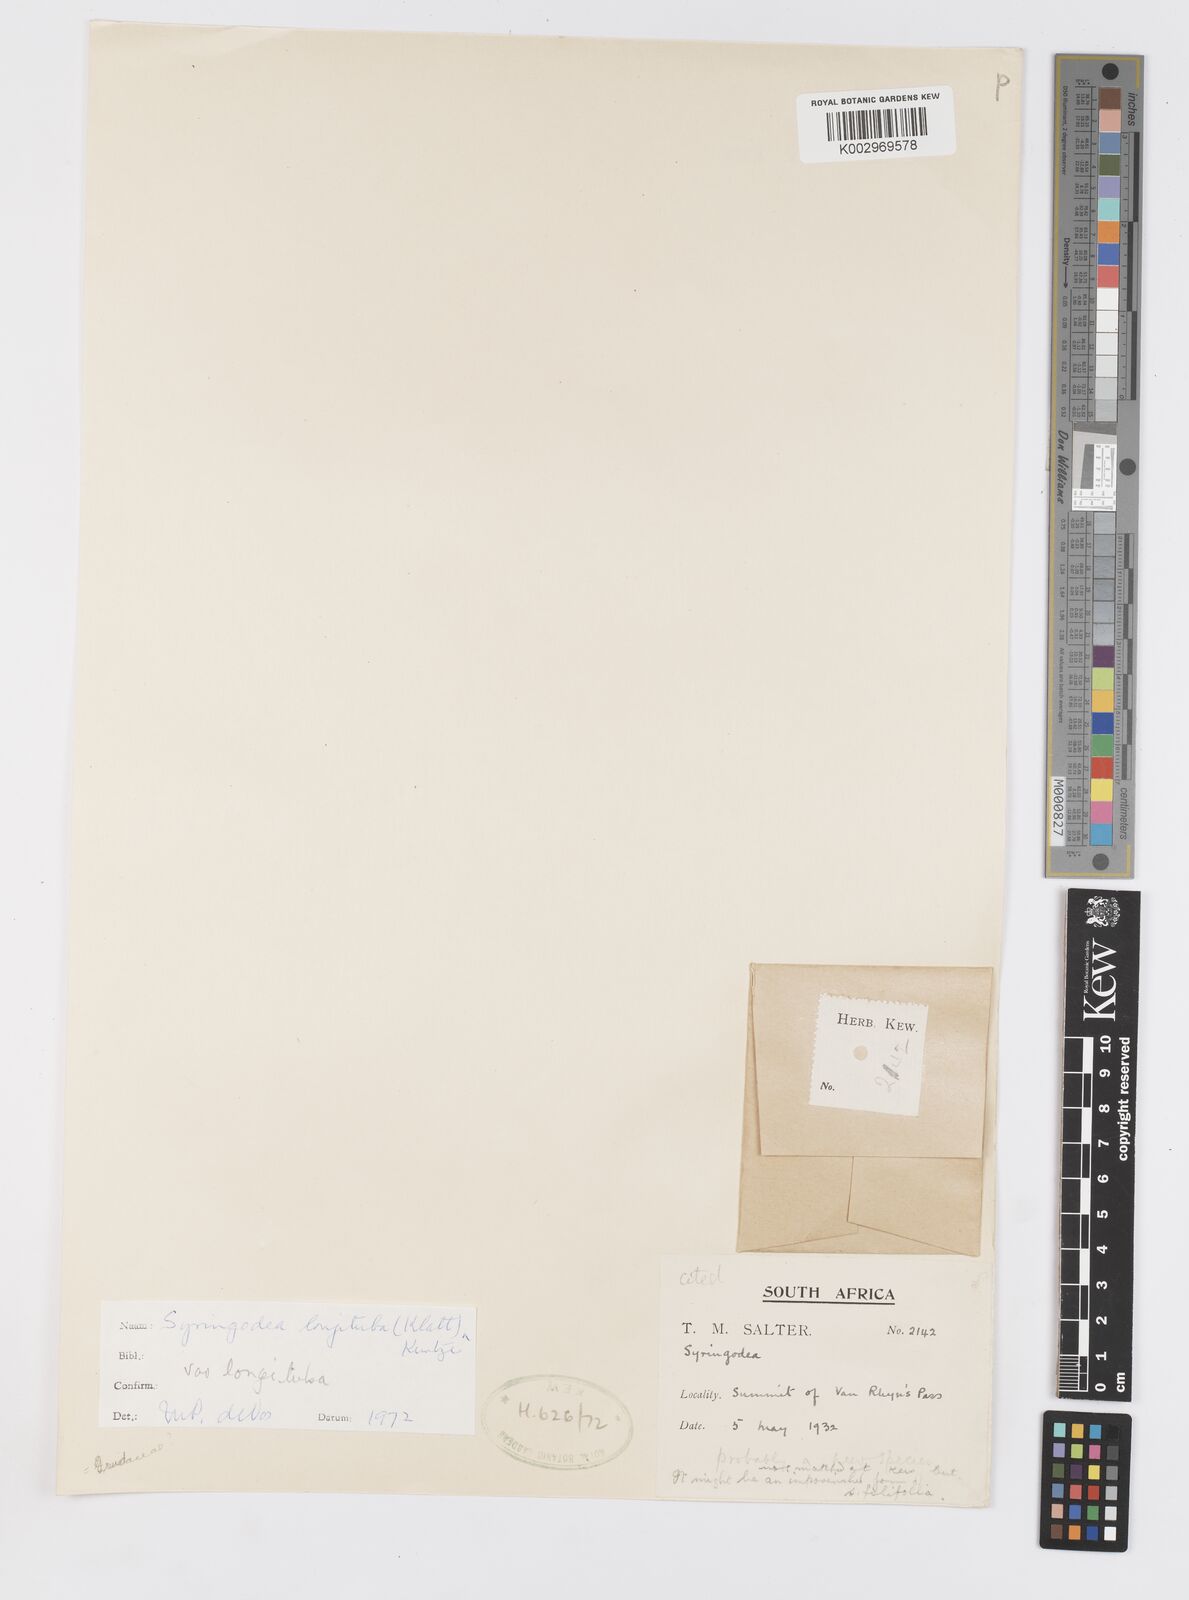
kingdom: Plantae
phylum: Tracheophyta
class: Liliopsida
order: Asparagales
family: Iridaceae
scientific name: Iridaceae
